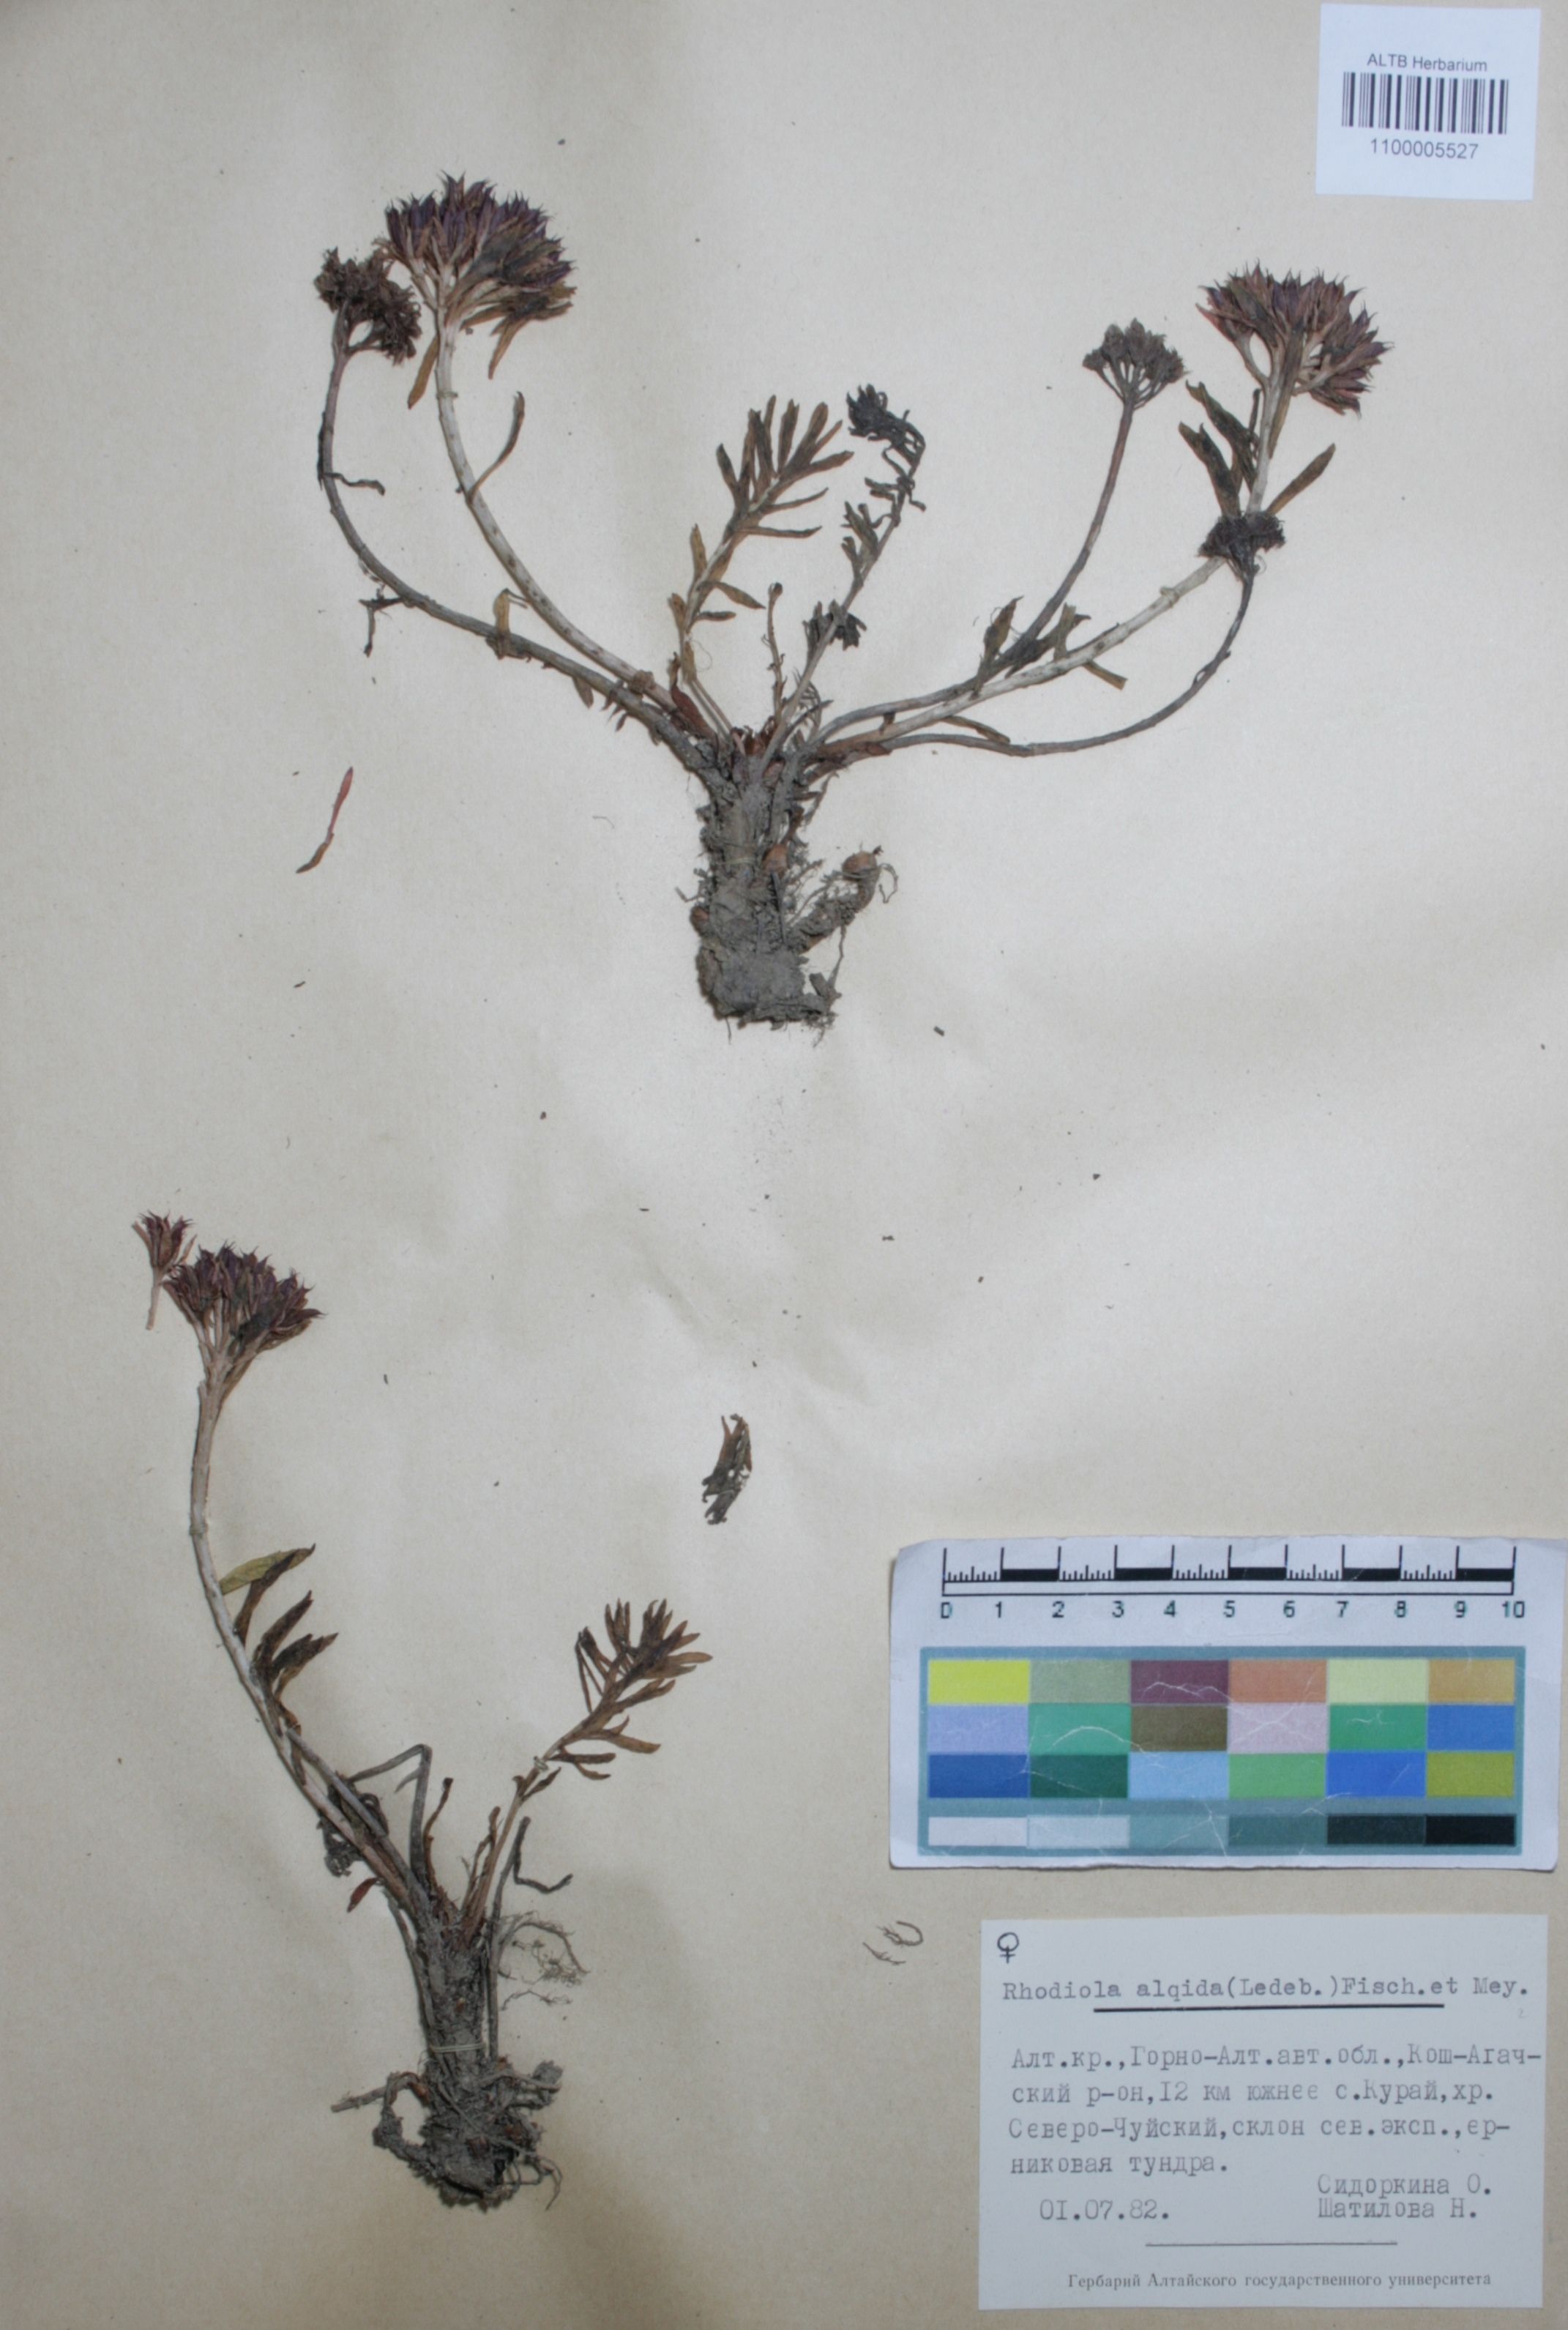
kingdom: Plantae
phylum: Tracheophyta
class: Magnoliopsida
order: Saxifragales
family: Crassulaceae
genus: Rhodiola
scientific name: Rhodiola algida
